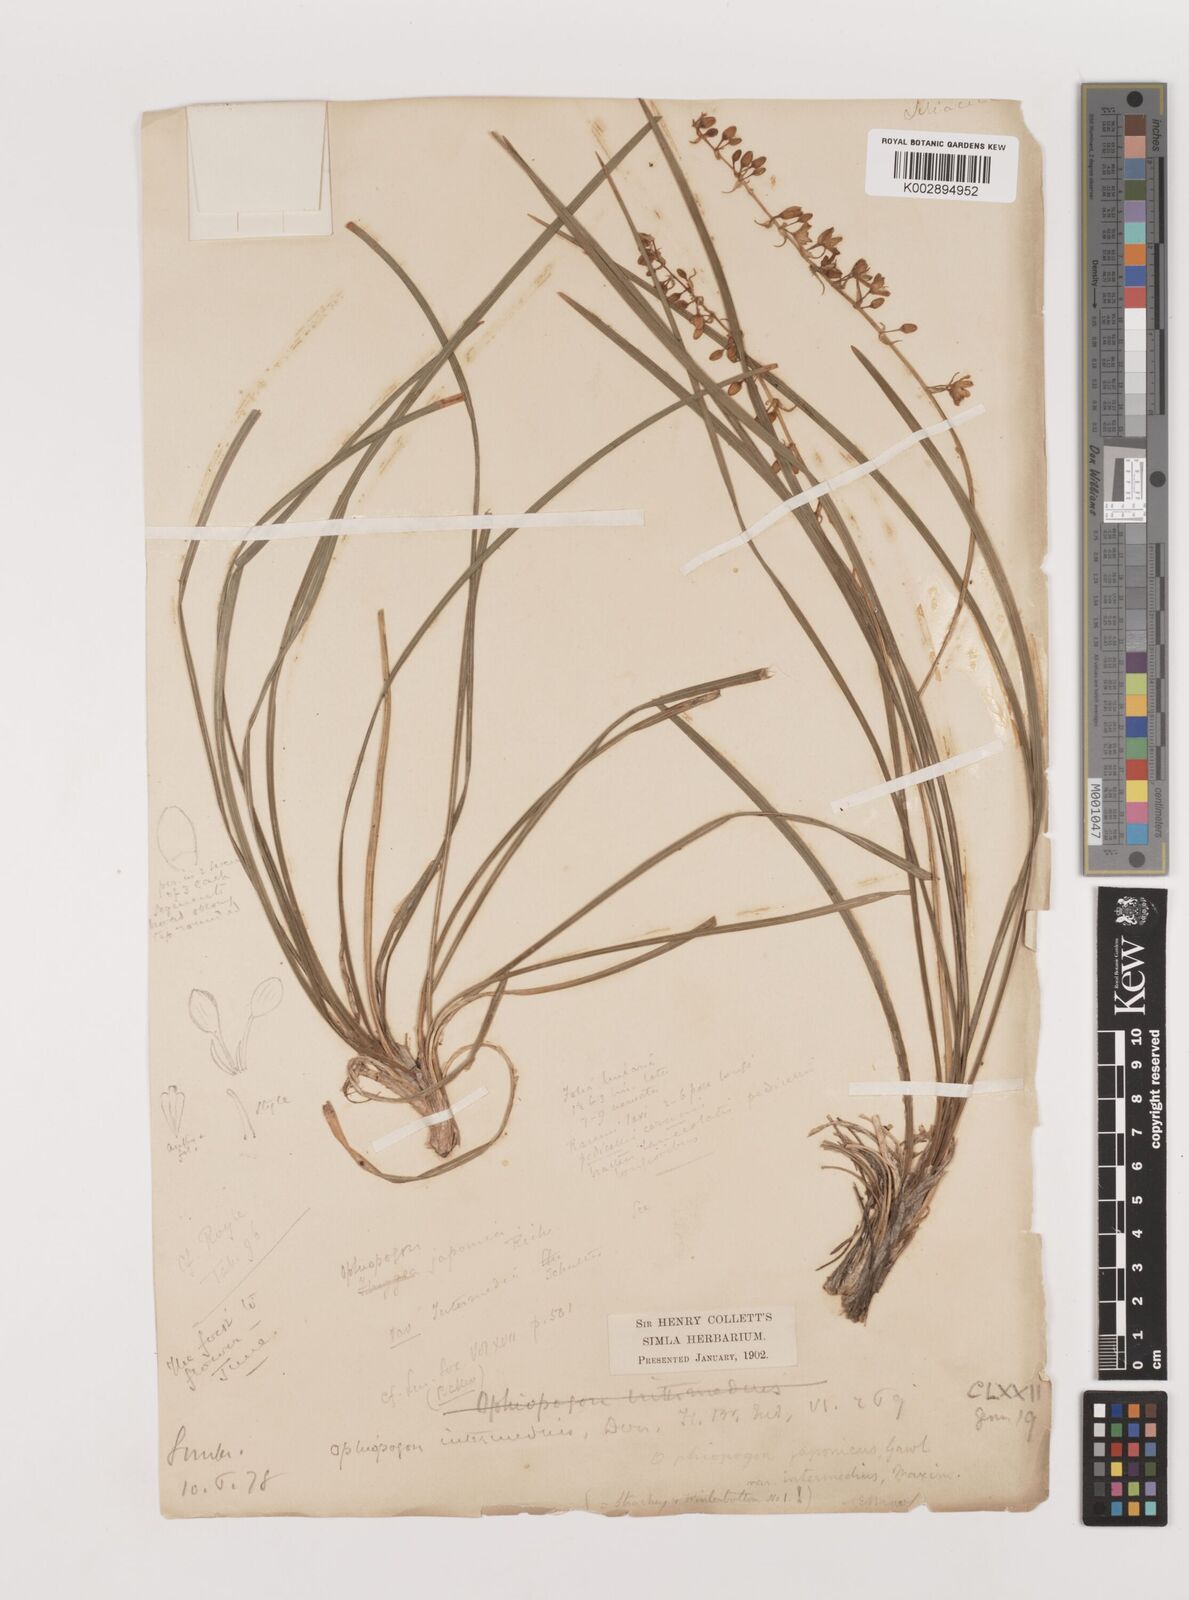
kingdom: Plantae
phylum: Tracheophyta
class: Liliopsida
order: Asparagales
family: Asparagaceae
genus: Ophiopogon
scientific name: Ophiopogon intermedius
